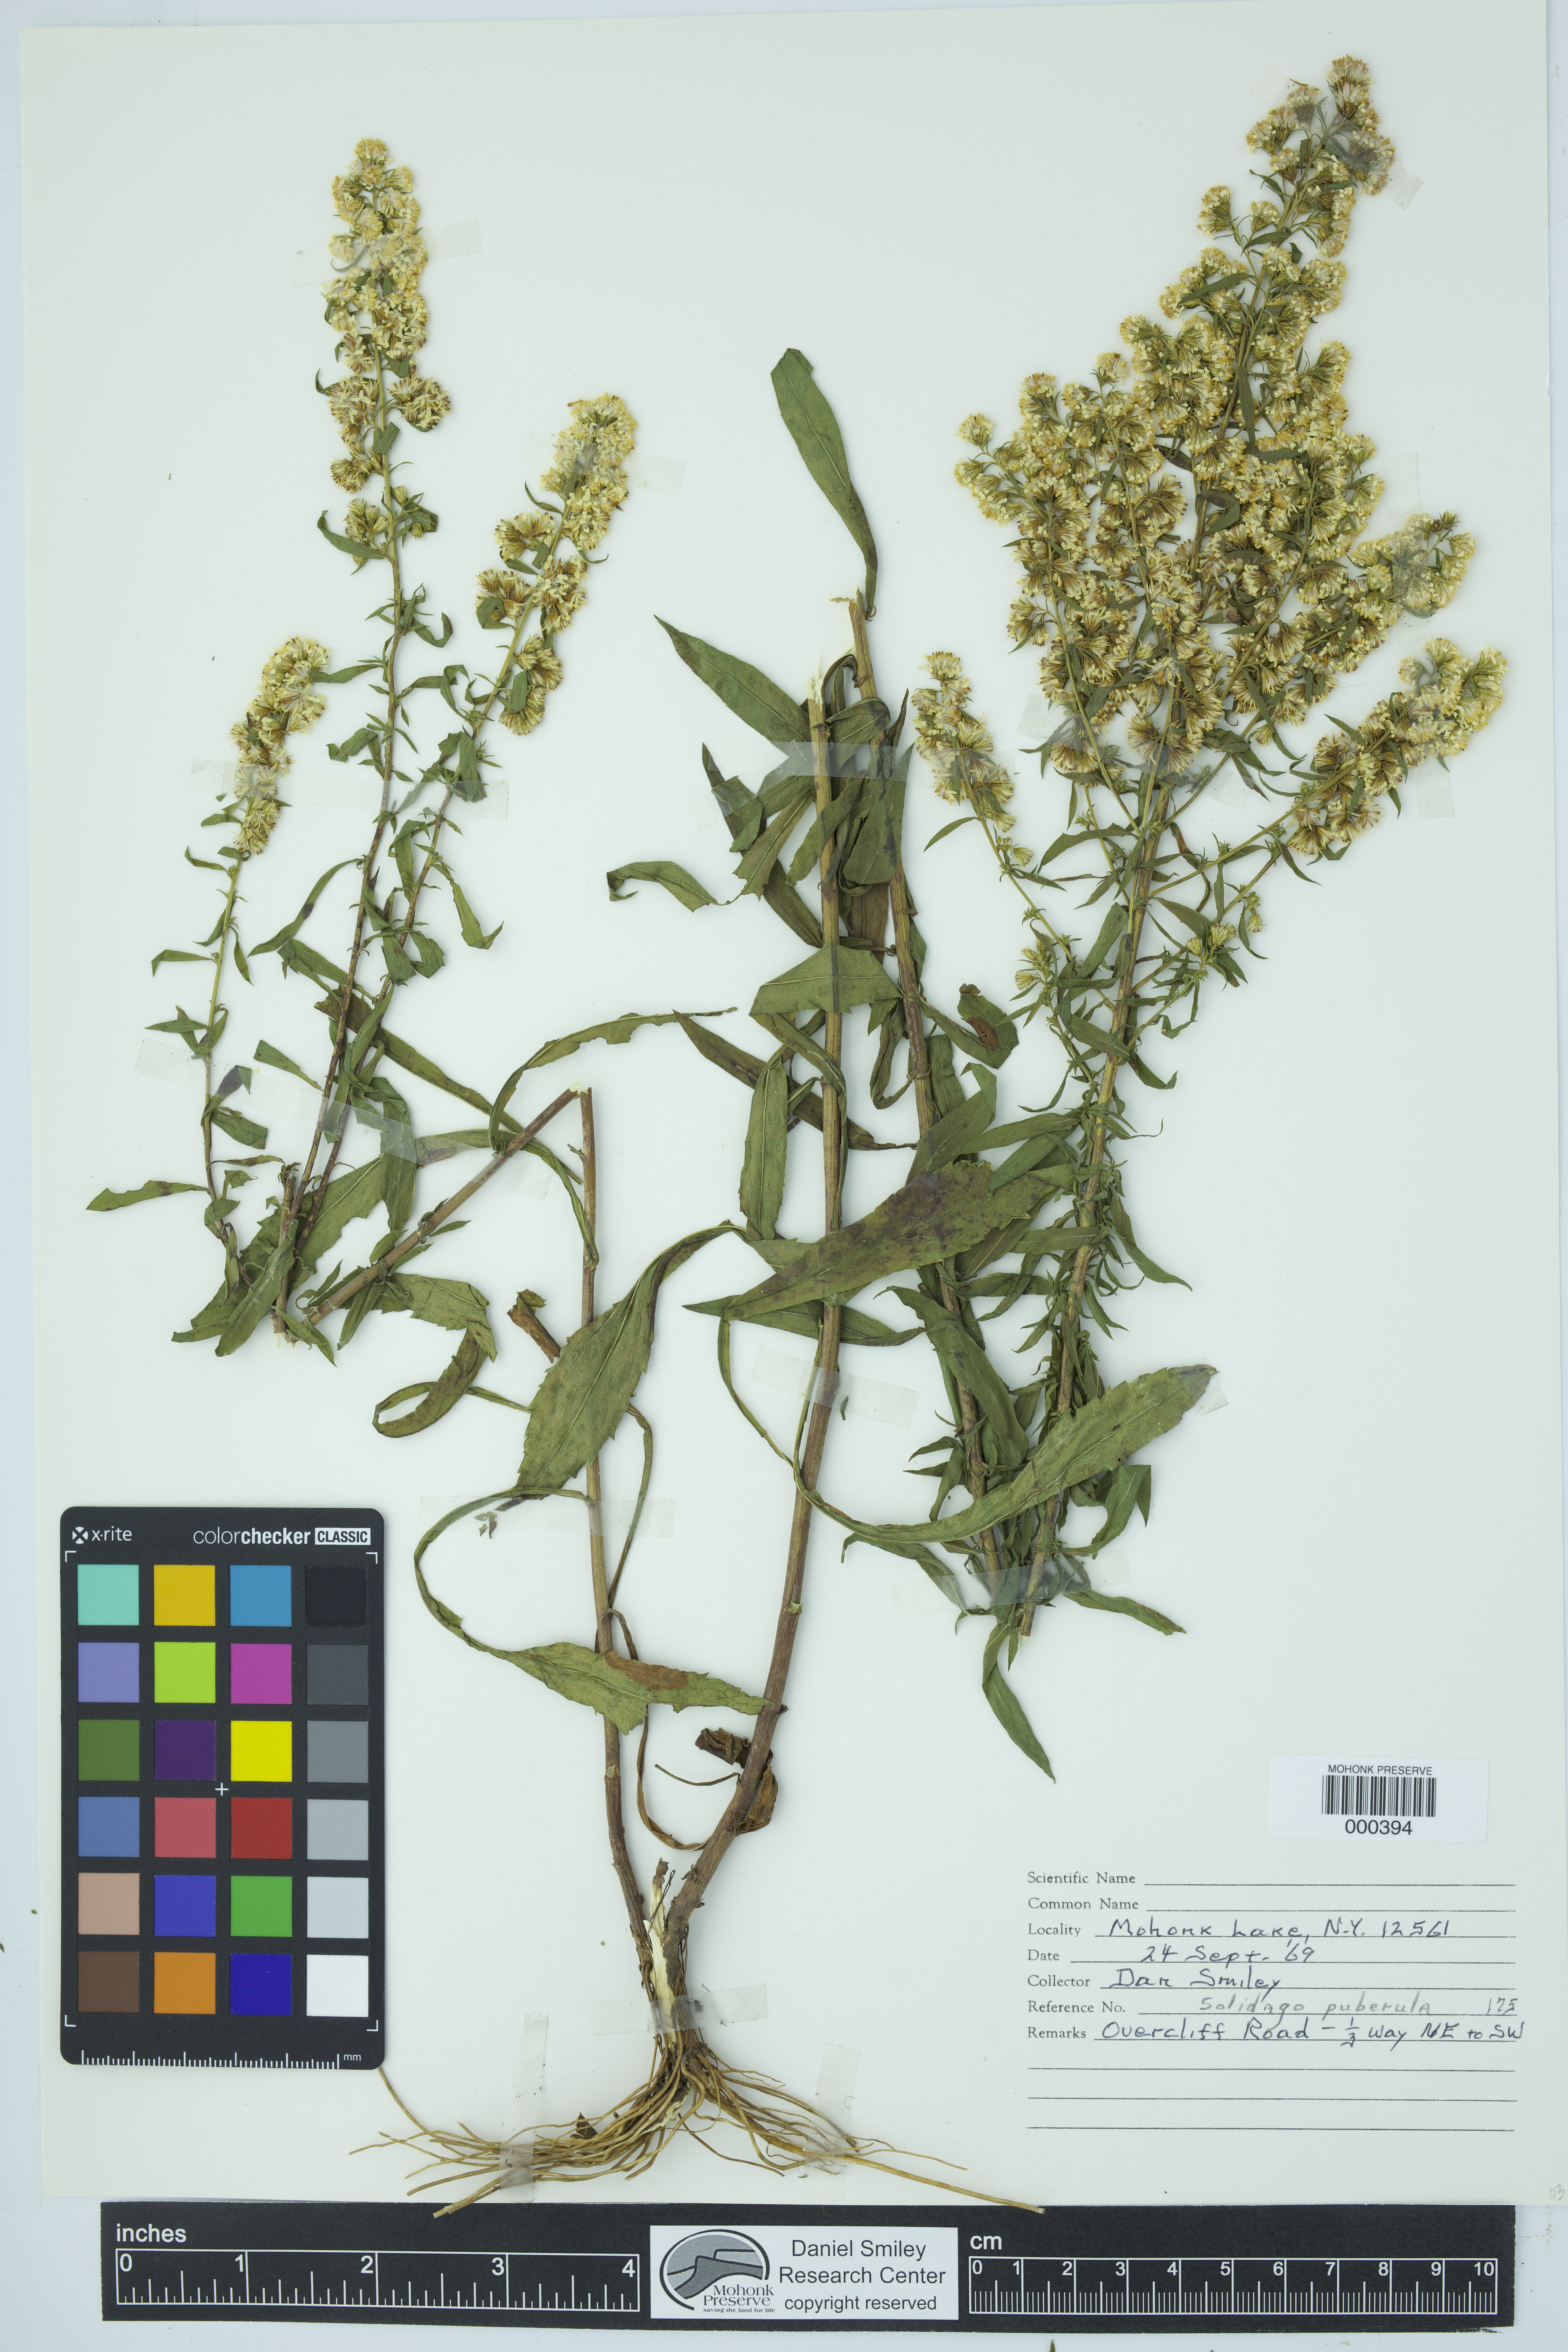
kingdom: Plantae
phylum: Tracheophyta
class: Magnoliopsida
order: Asterales
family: Asteraceae
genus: Solidago
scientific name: Solidago puberula
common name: Downy goldenrod
